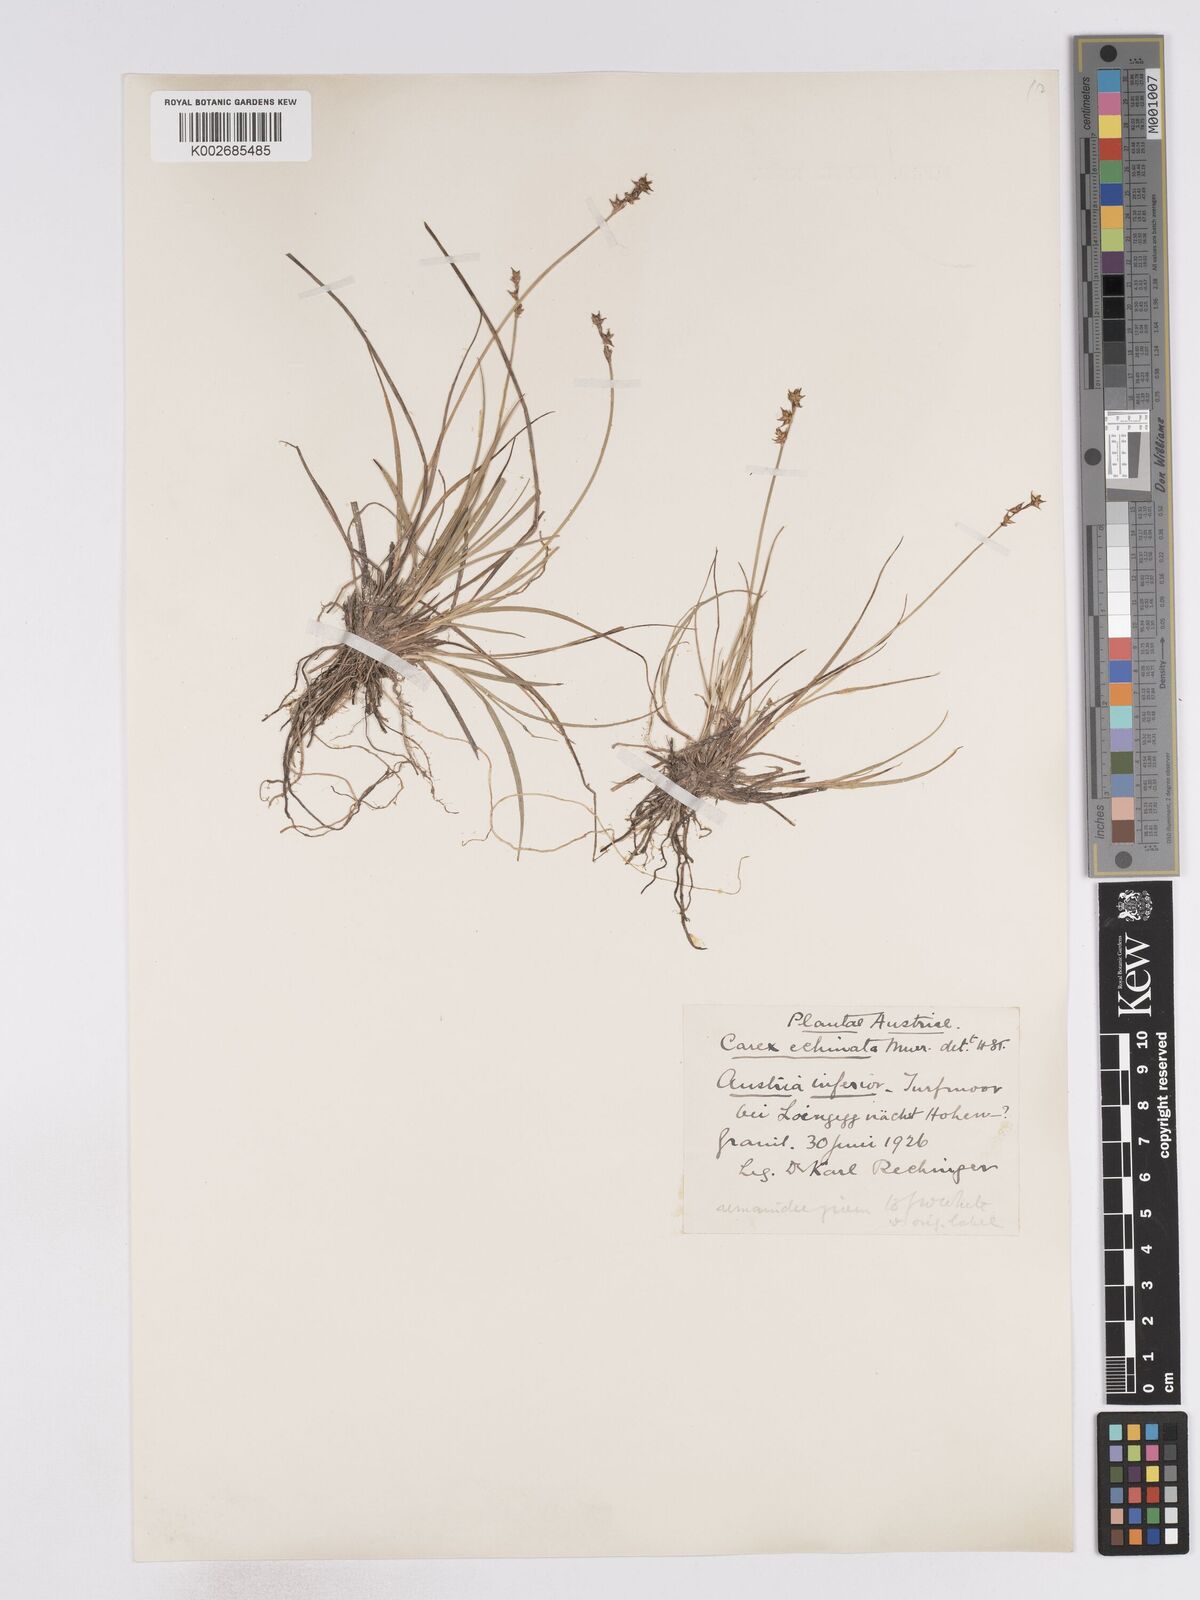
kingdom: Plantae
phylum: Tracheophyta
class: Liliopsida
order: Poales
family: Cyperaceae
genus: Carex
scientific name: Carex echinata
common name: Star sedge
